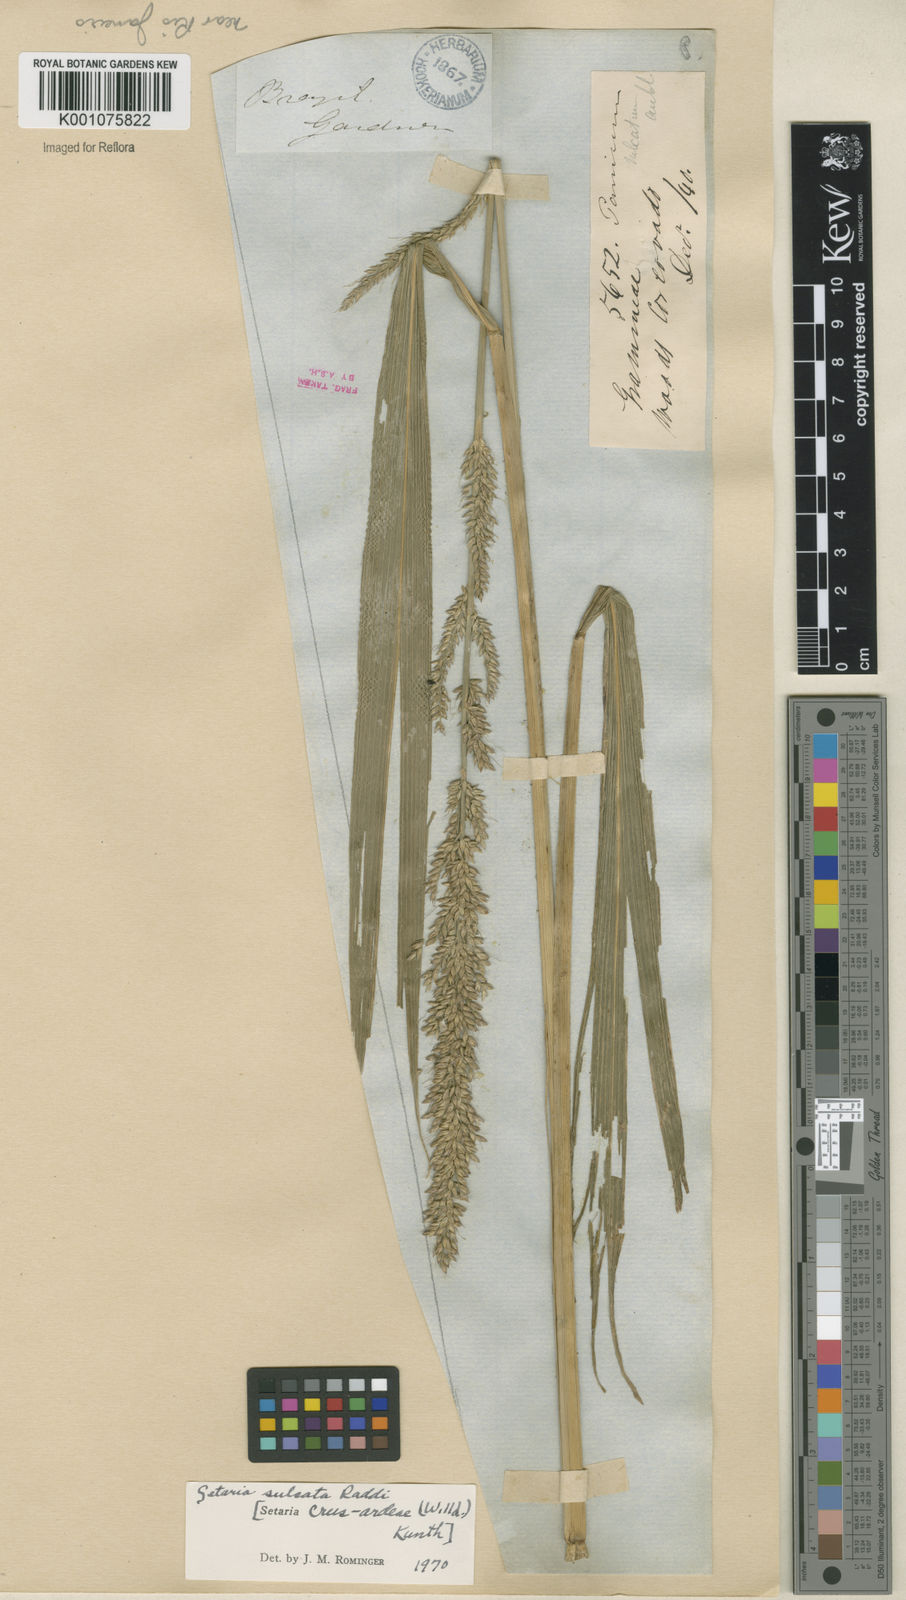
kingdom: Plantae
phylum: Tracheophyta
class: Liliopsida
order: Poales
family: Poaceae
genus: Setaria
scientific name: Setaria sulcata
